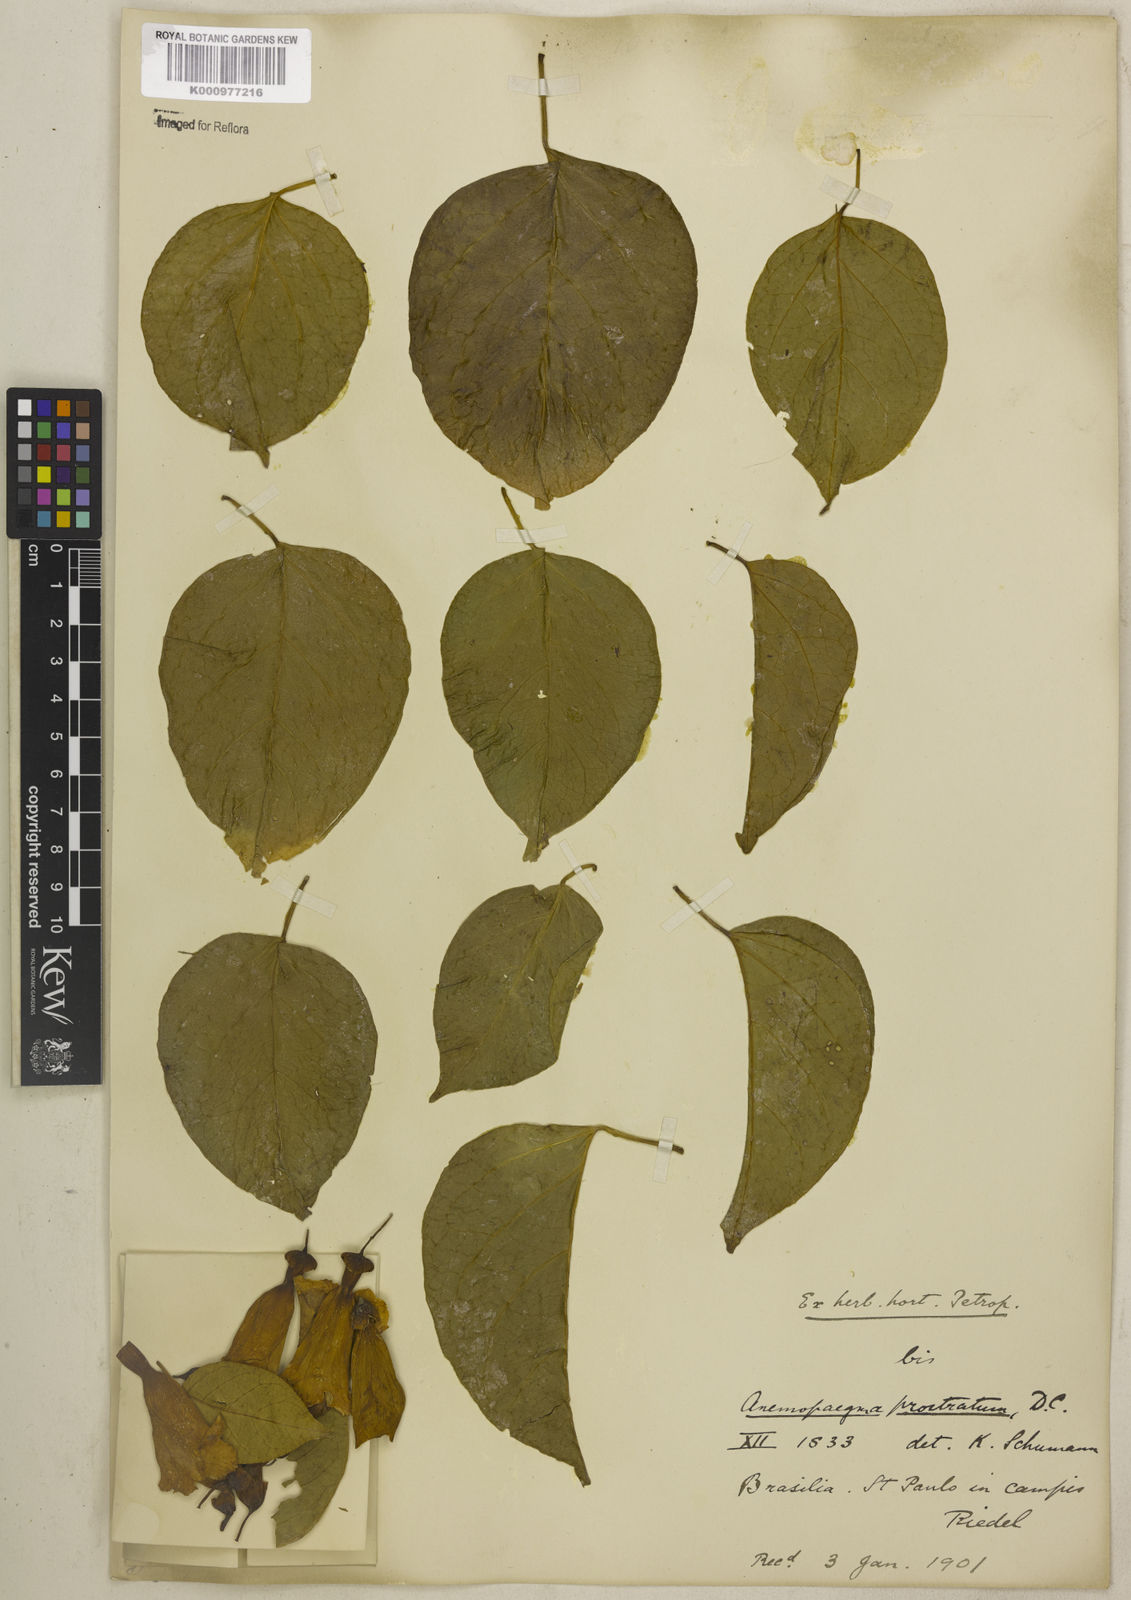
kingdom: Plantae
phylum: Tracheophyta
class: Magnoliopsida
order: Lamiales
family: Bignoniaceae
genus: Anemopaegma
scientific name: Anemopaegma prostratum
